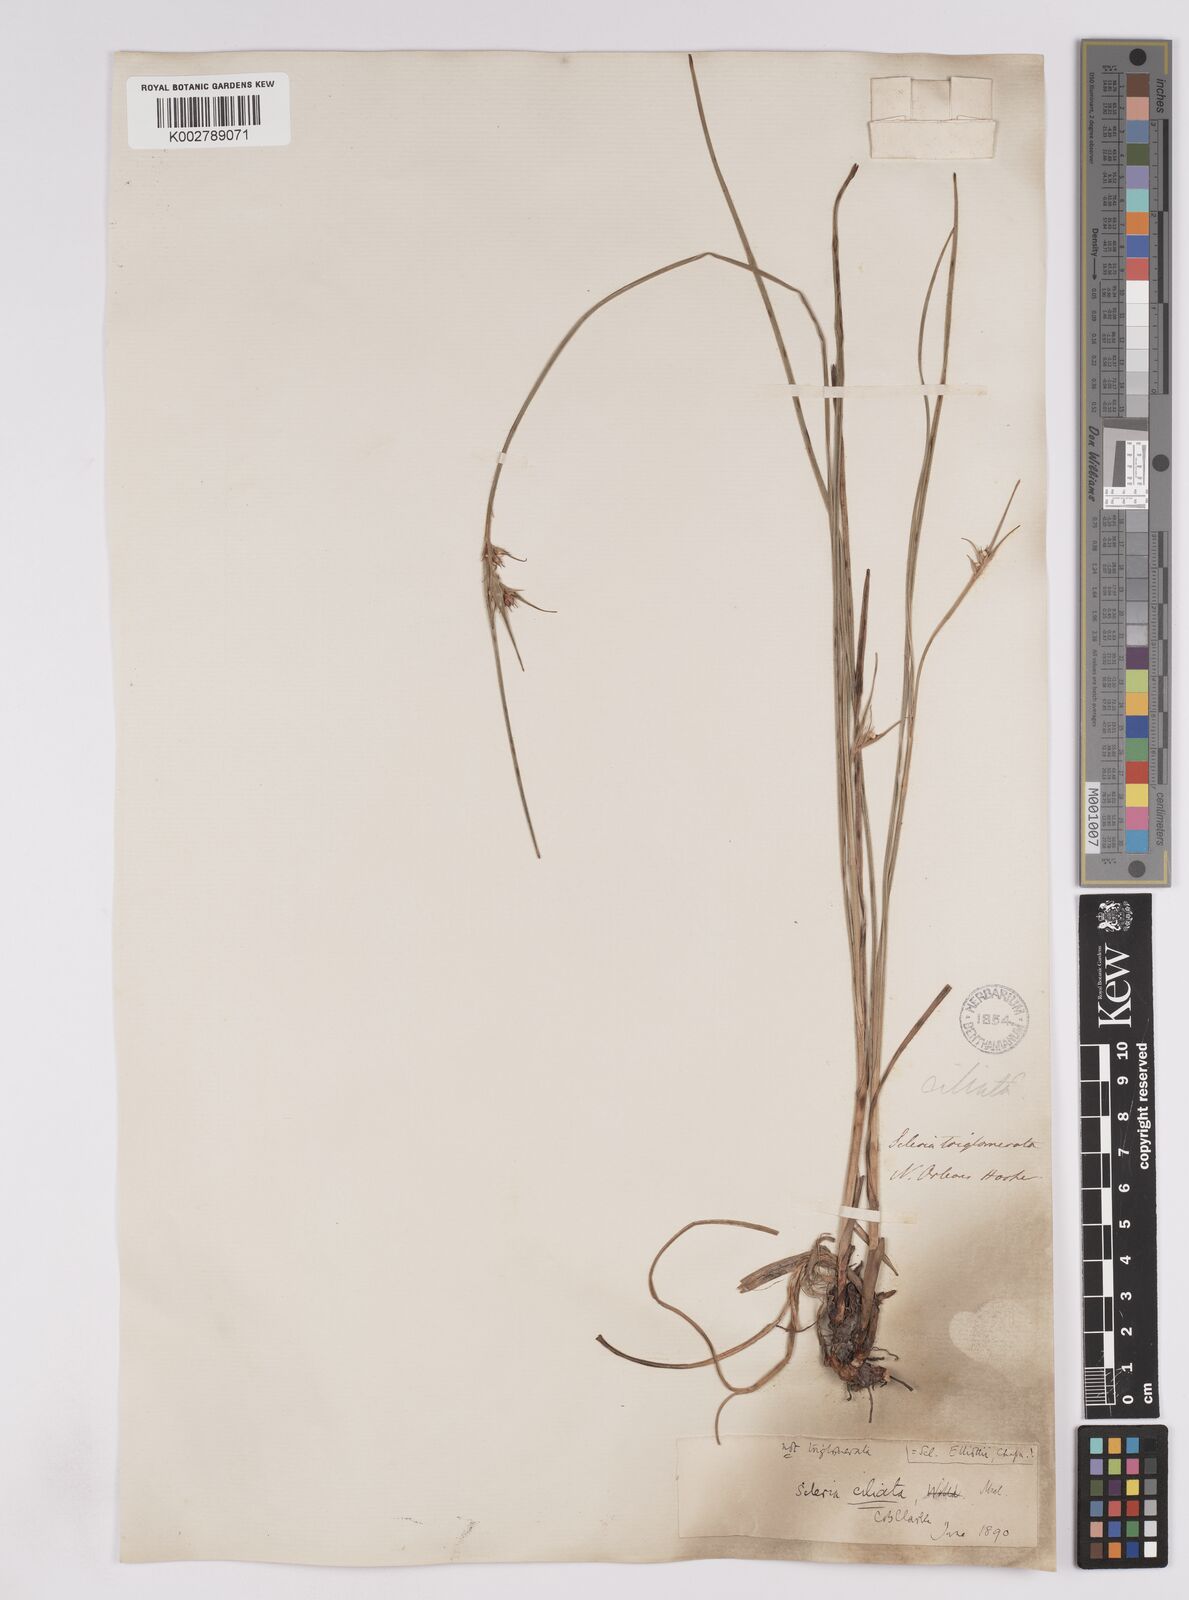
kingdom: Plantae
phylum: Tracheophyta
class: Liliopsida
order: Poales
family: Cyperaceae
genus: Scleria
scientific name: Scleria ciliata
